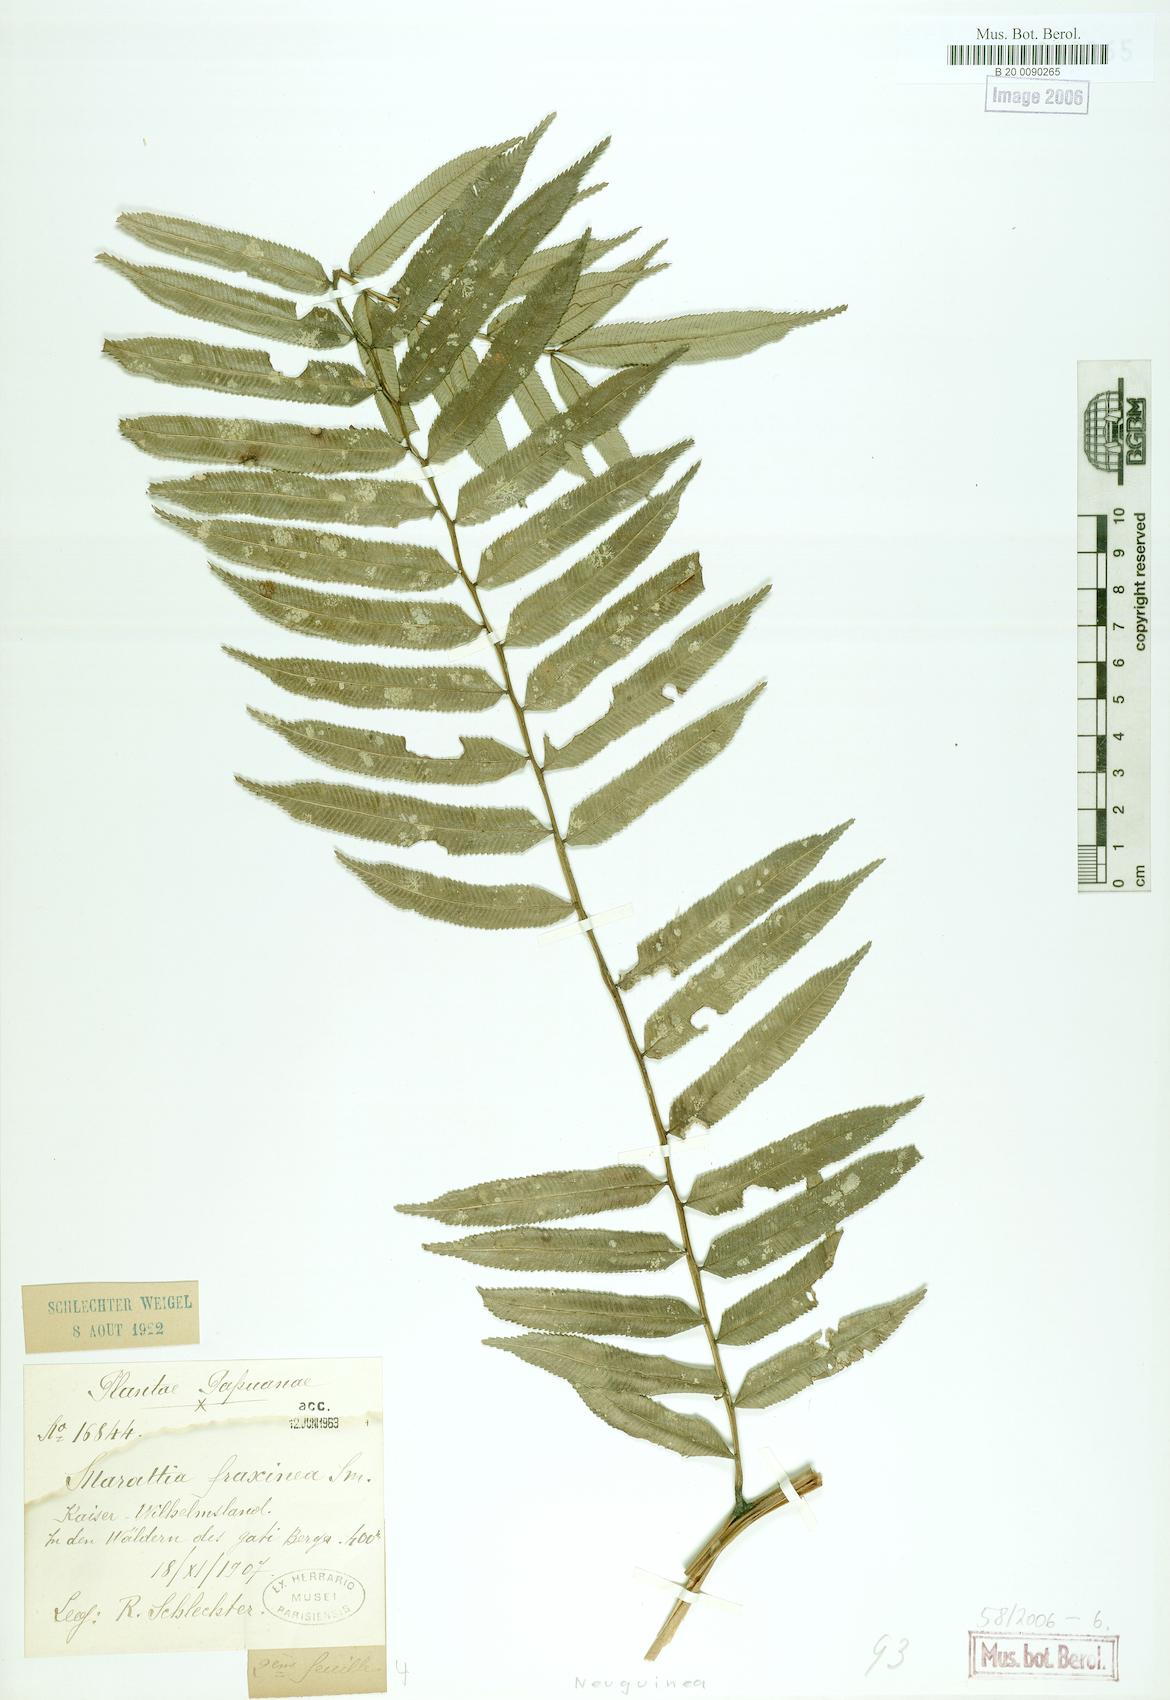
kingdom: Plantae
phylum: Tracheophyta
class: Polypodiopsida
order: Marattiales
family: Marattiaceae
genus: Ptisana
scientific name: Ptisana fraxinea
